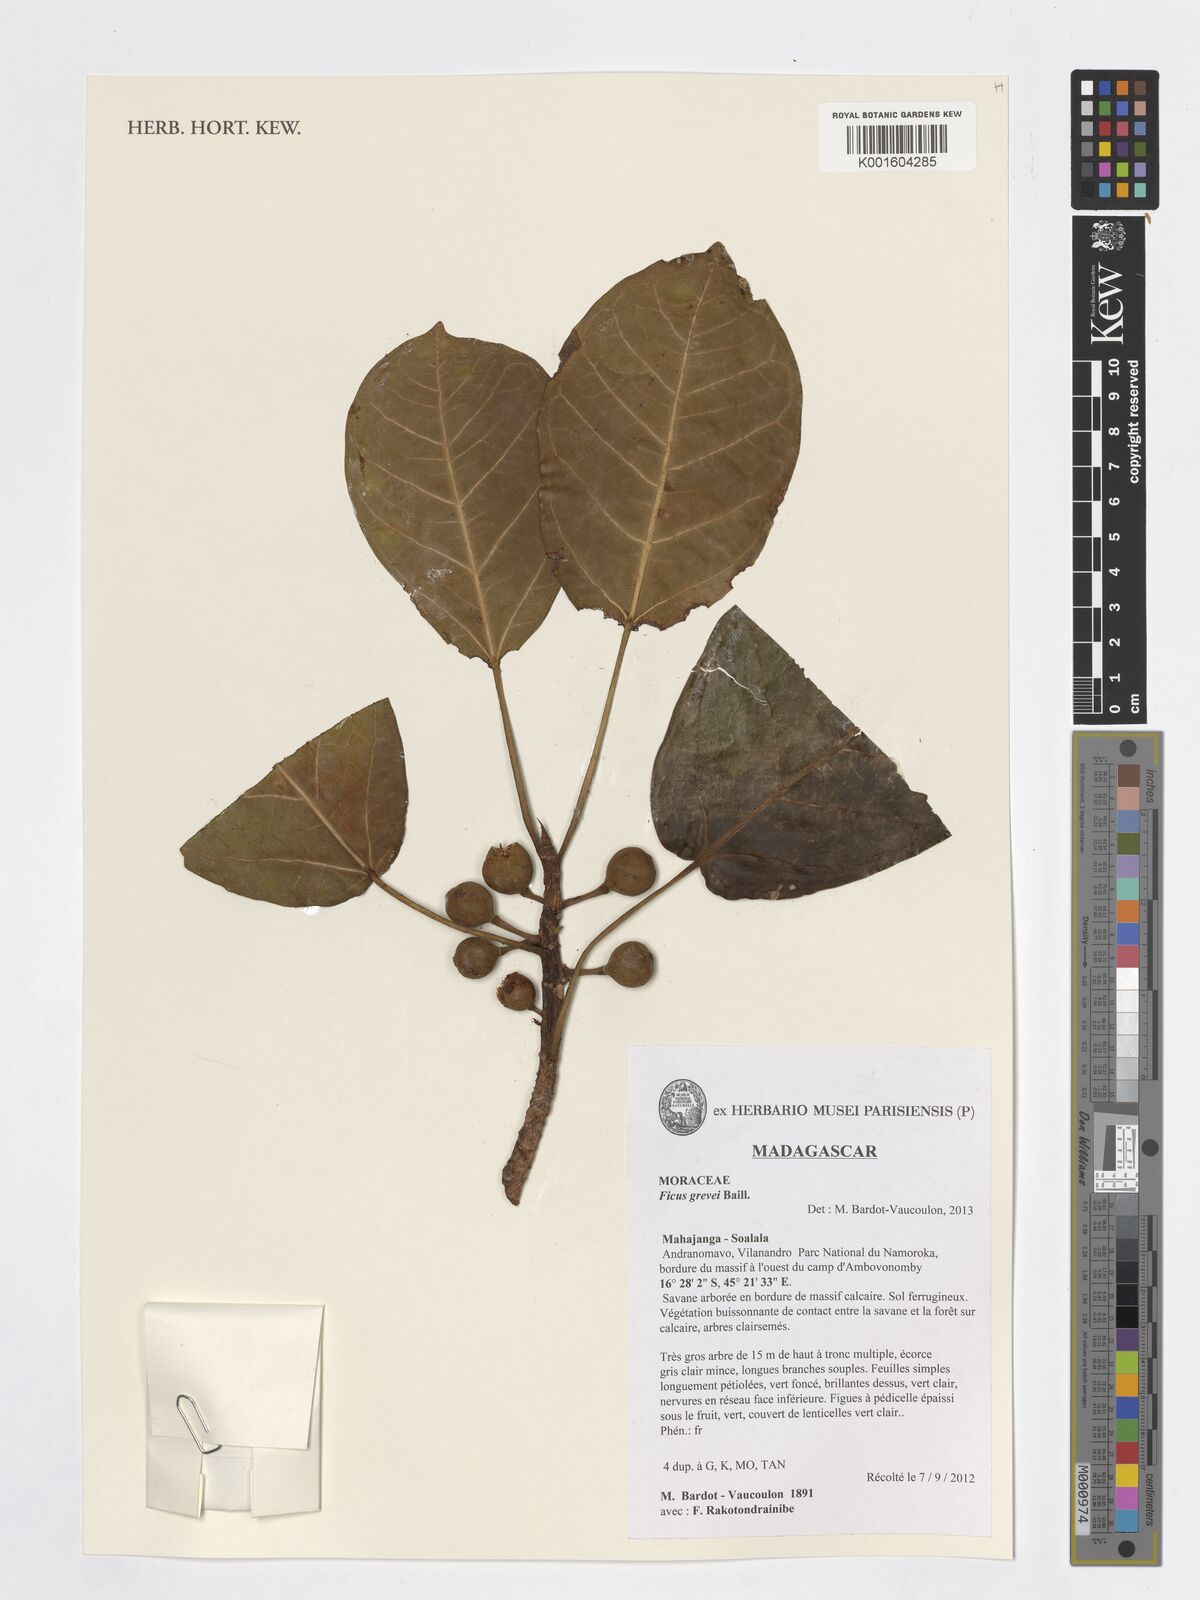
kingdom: Plantae
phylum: Tracheophyta
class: Magnoliopsida
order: Rosales
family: Moraceae
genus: Ficus
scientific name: Ficus grevei
